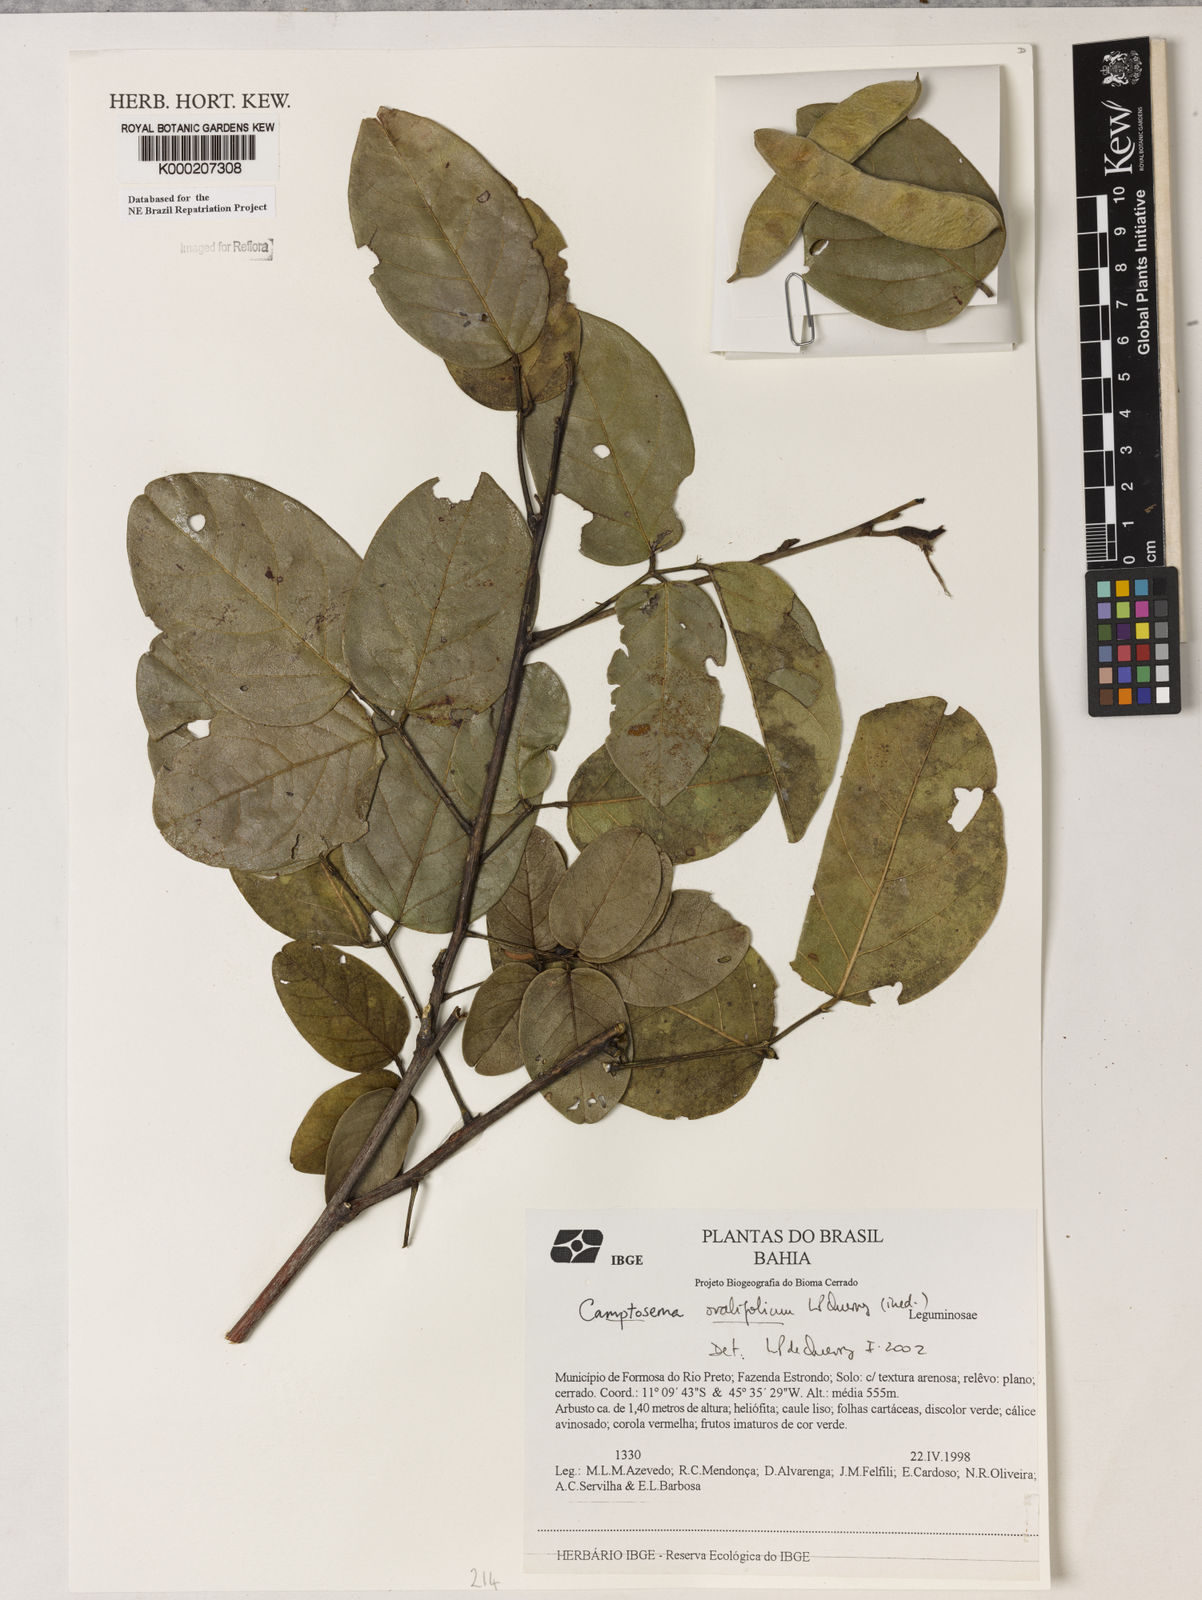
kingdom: Plantae
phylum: Tracheophyta
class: Magnoliopsida
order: Fabales
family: Fabaceae
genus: Camptosema
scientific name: Camptosema
